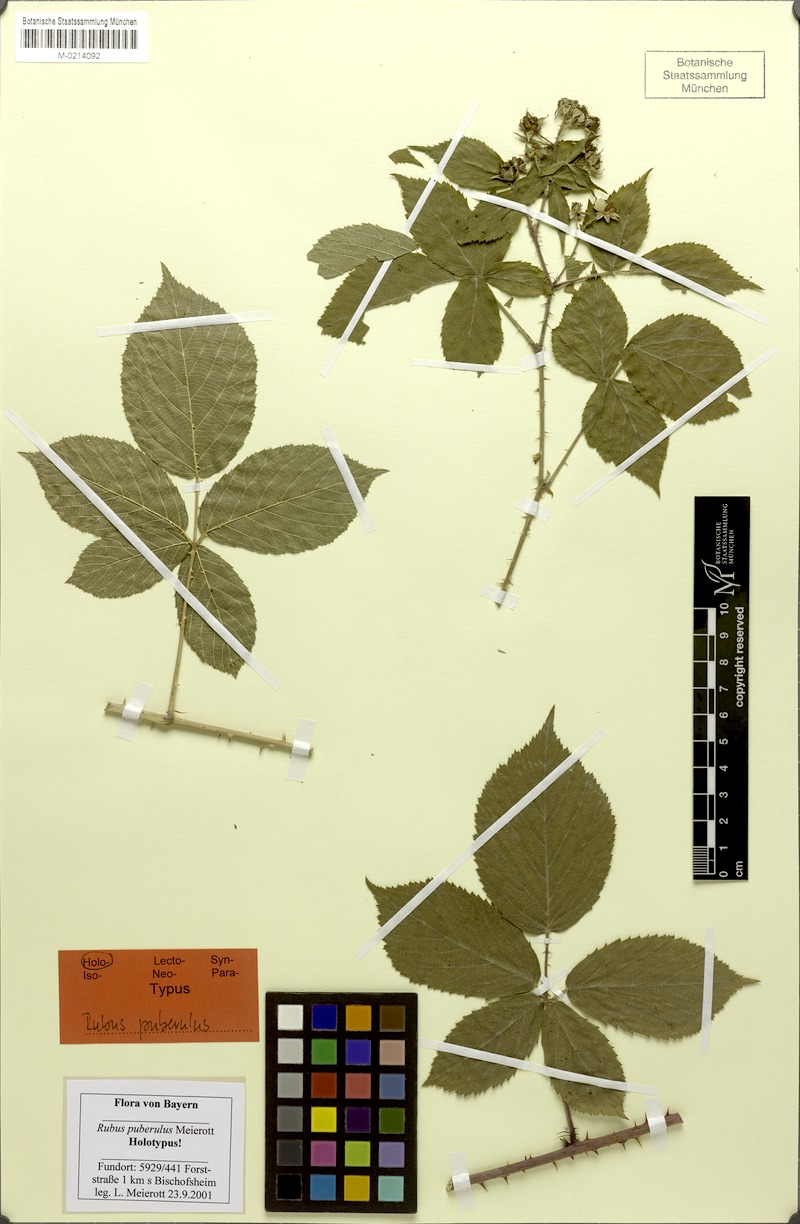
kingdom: Plantae
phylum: Tracheophyta
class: Magnoliopsida
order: Rosales
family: Rosaceae
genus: Rubus
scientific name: Rubus puberulus
